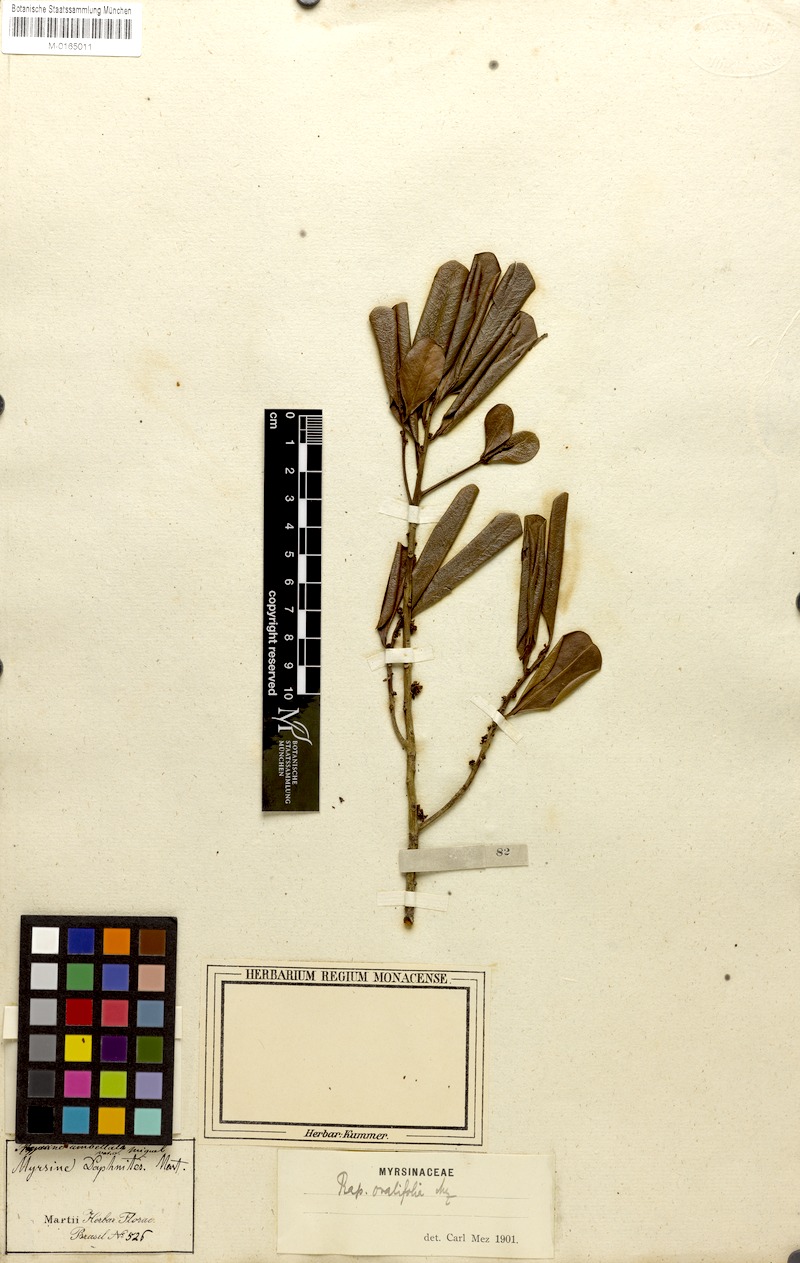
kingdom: Plantae
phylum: Tracheophyta
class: Magnoliopsida
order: Ericales
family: Primulaceae
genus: Myrsine
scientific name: Myrsine umbellata
